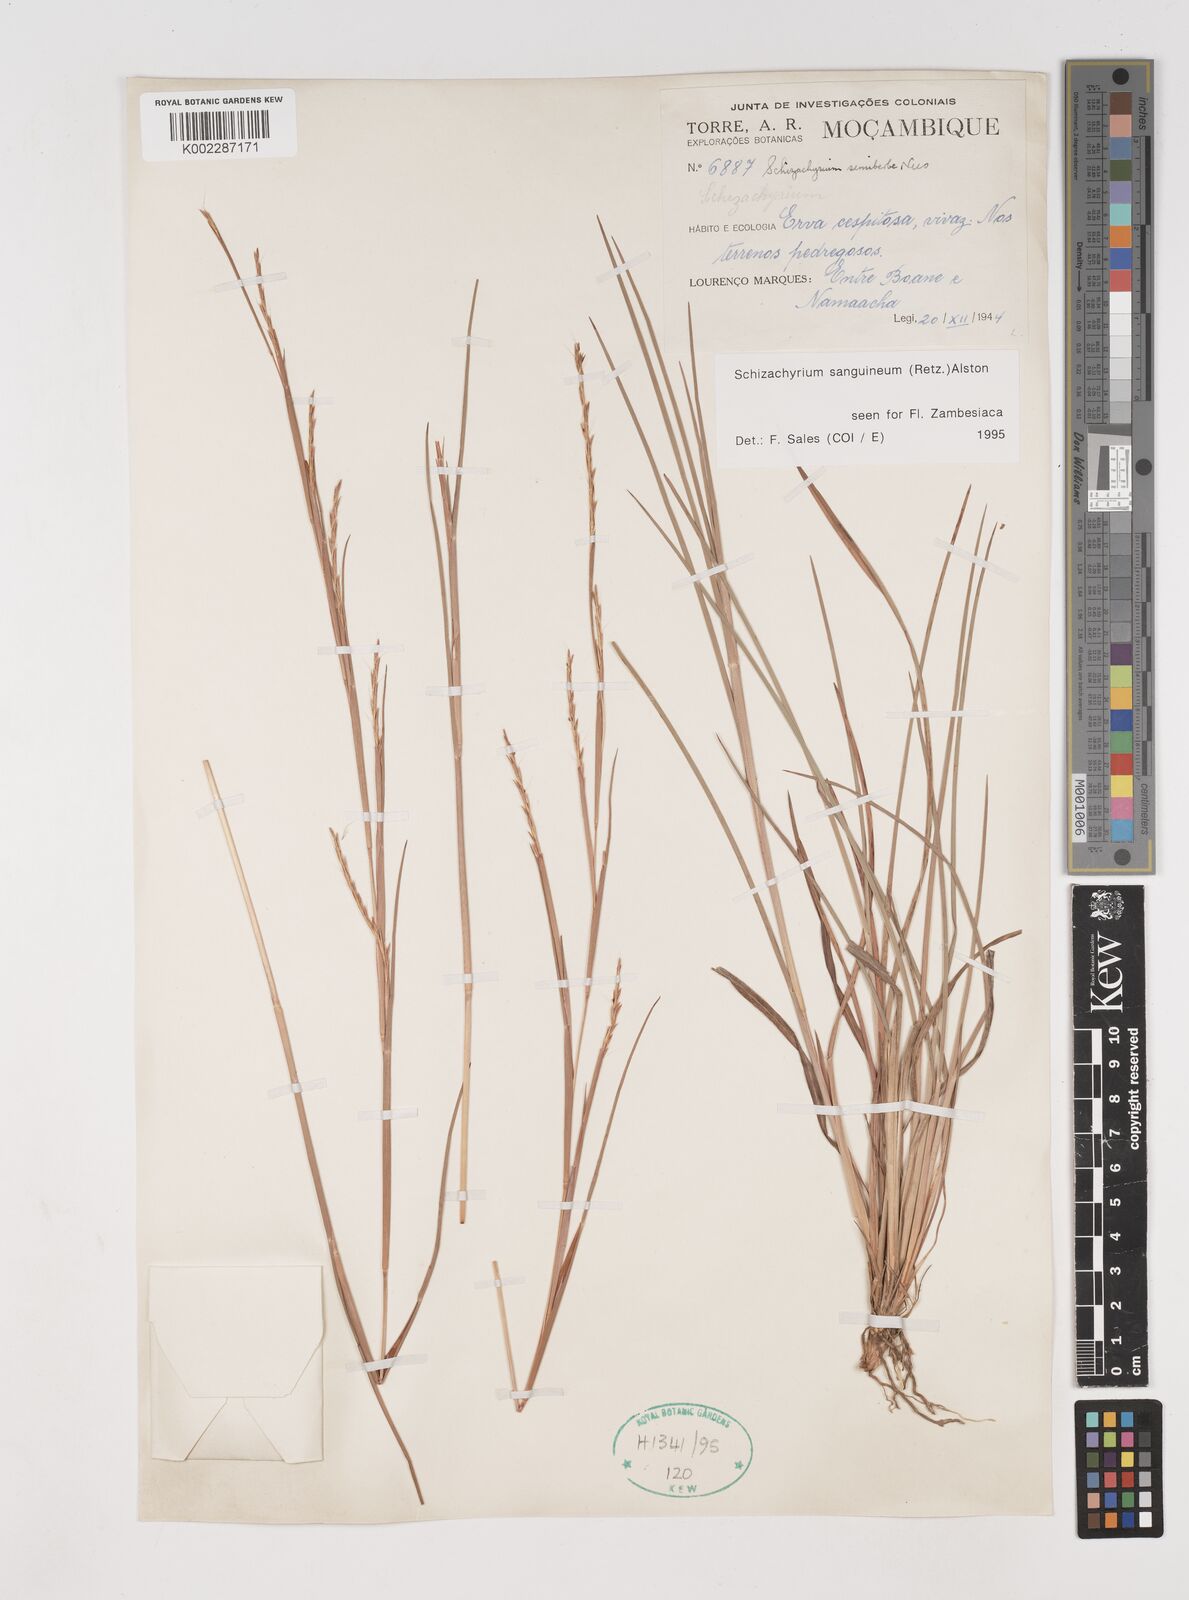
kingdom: Plantae
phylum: Tracheophyta
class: Liliopsida
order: Poales
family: Poaceae
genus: Schizachyrium
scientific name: Schizachyrium sanguineum
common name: Crimson bluestem
